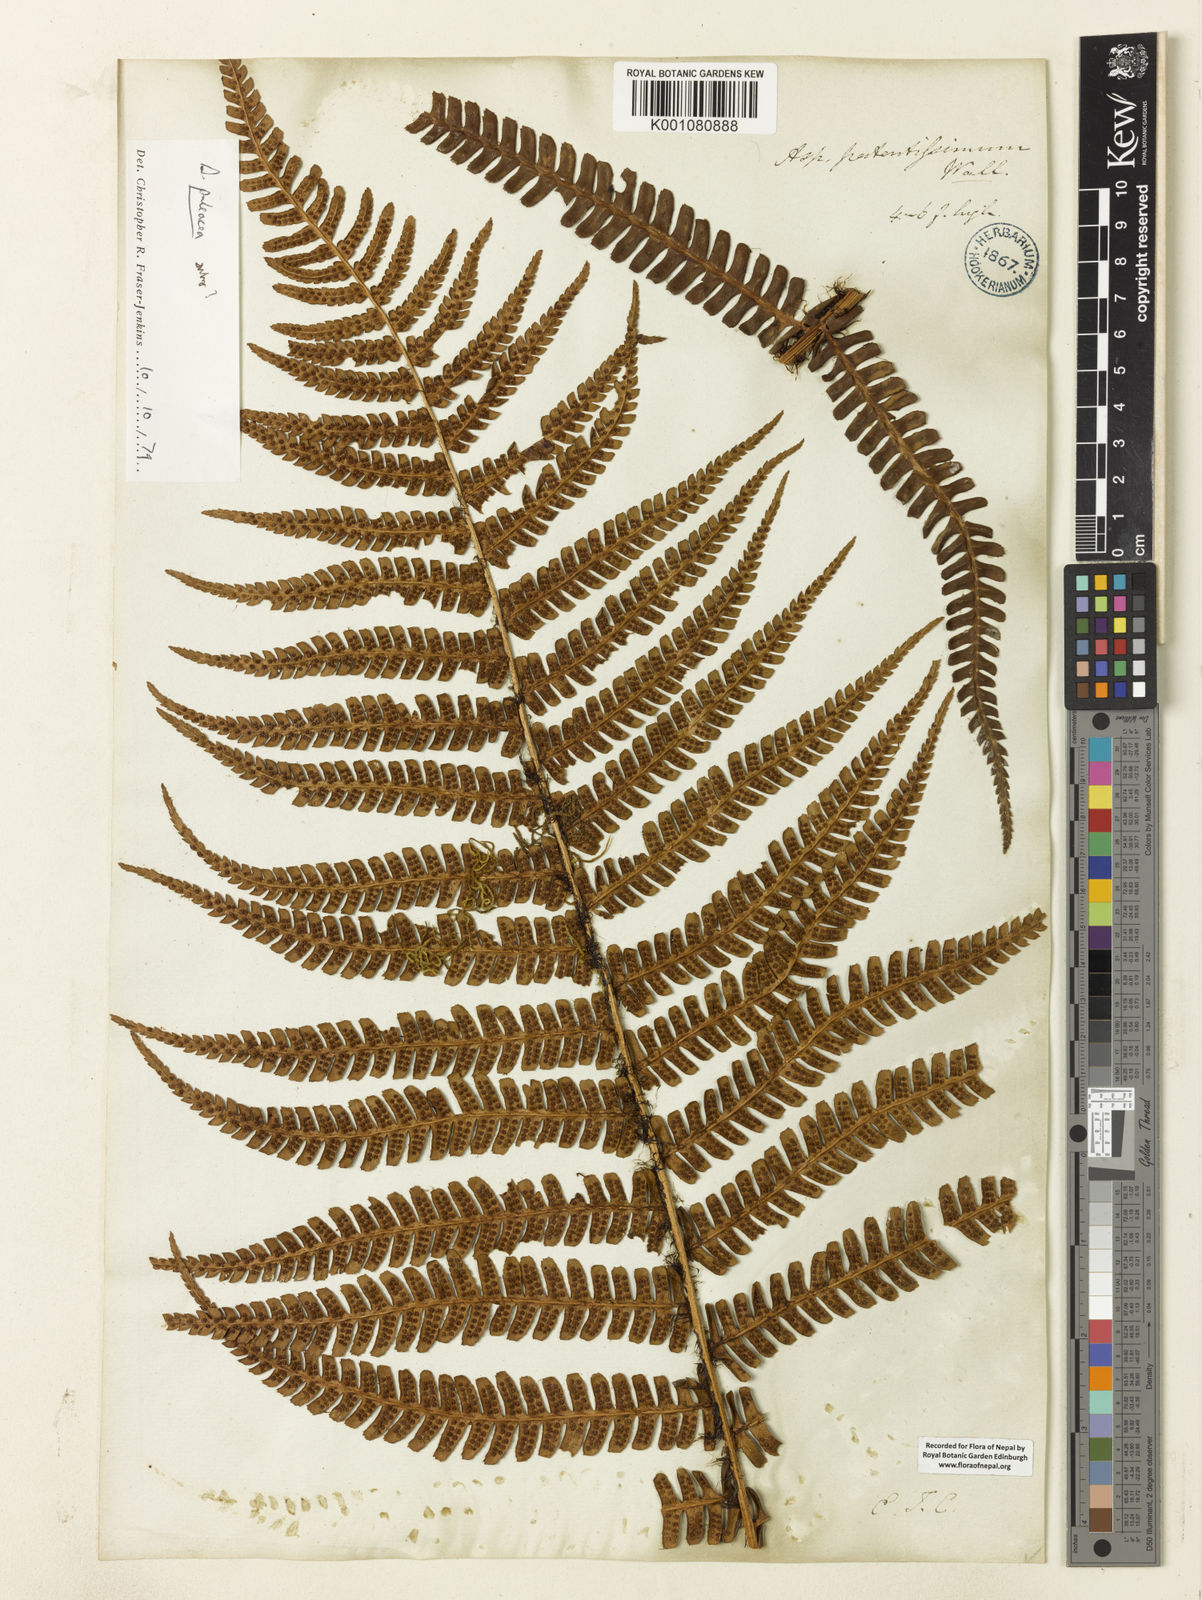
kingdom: Plantae
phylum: Tracheophyta
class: Polypodiopsida
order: Polypodiales
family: Dryopteridaceae
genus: Dryopteris
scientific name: Dryopteris wallichiana
